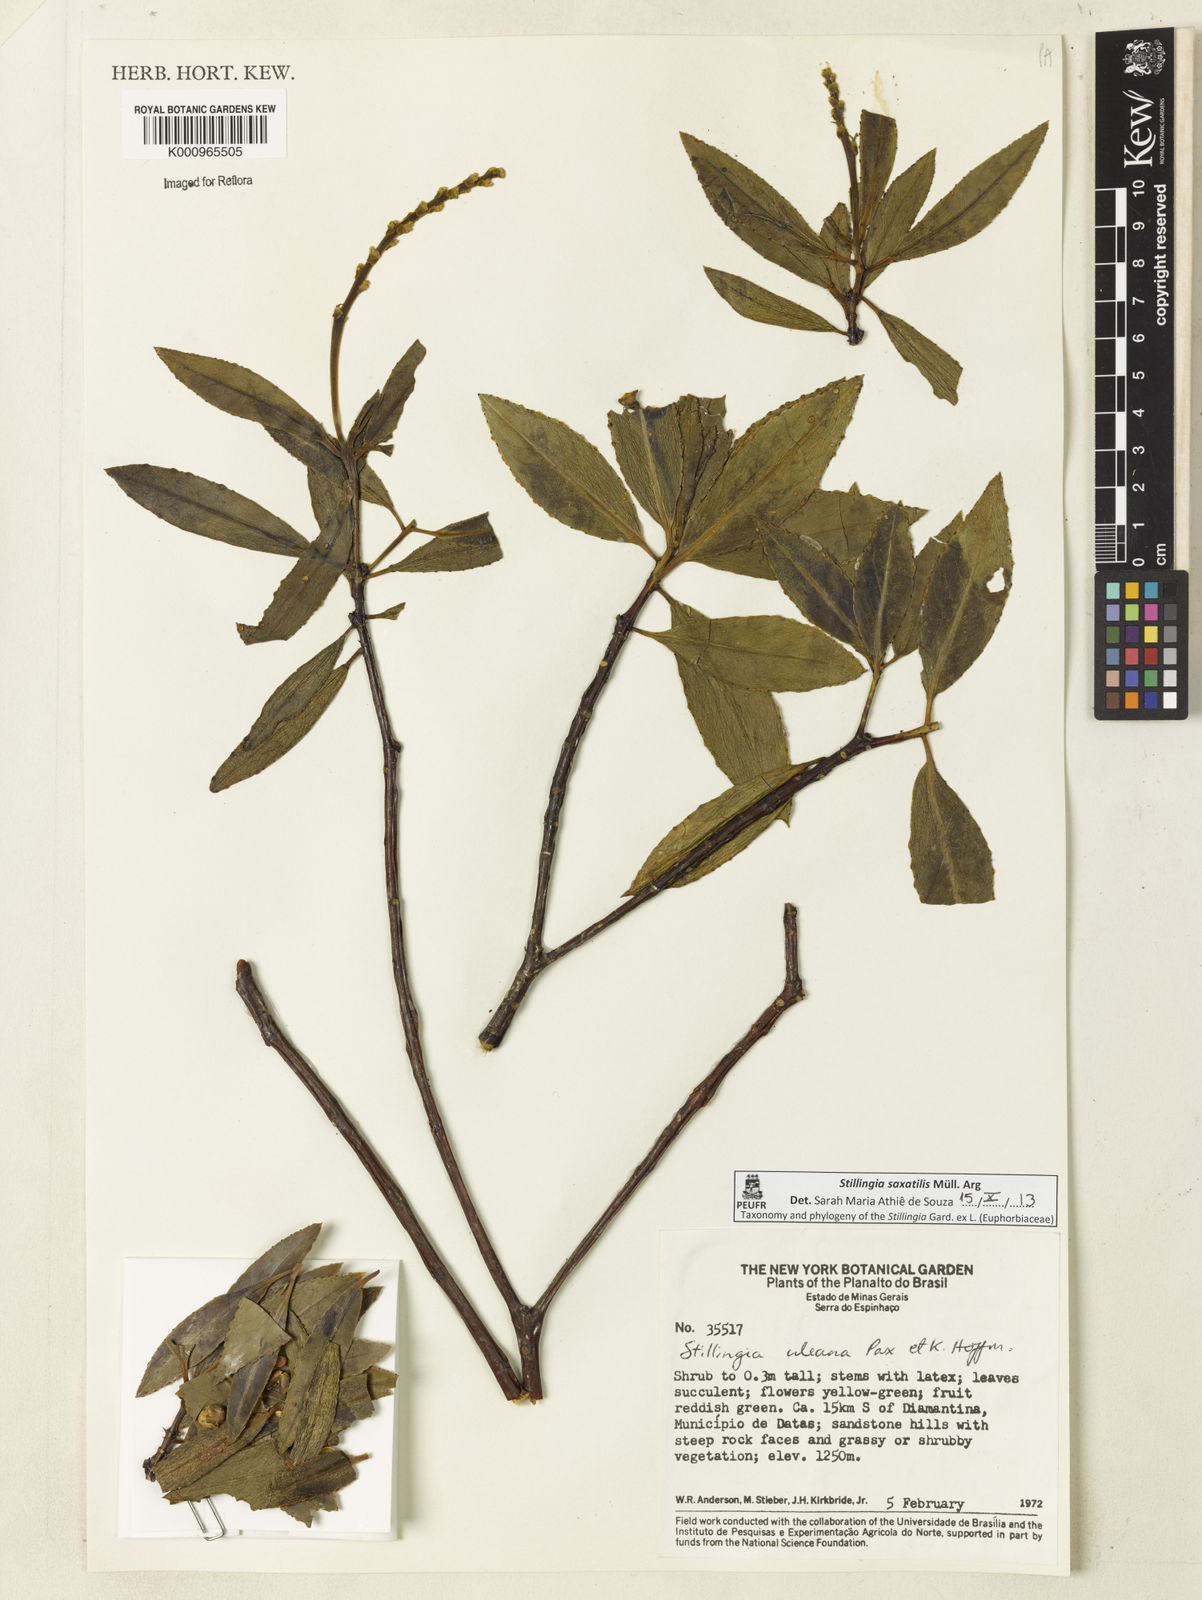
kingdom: Plantae
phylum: Tracheophyta
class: Magnoliopsida
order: Malpighiales
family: Euphorbiaceae
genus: Stillingia
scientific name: Stillingia
